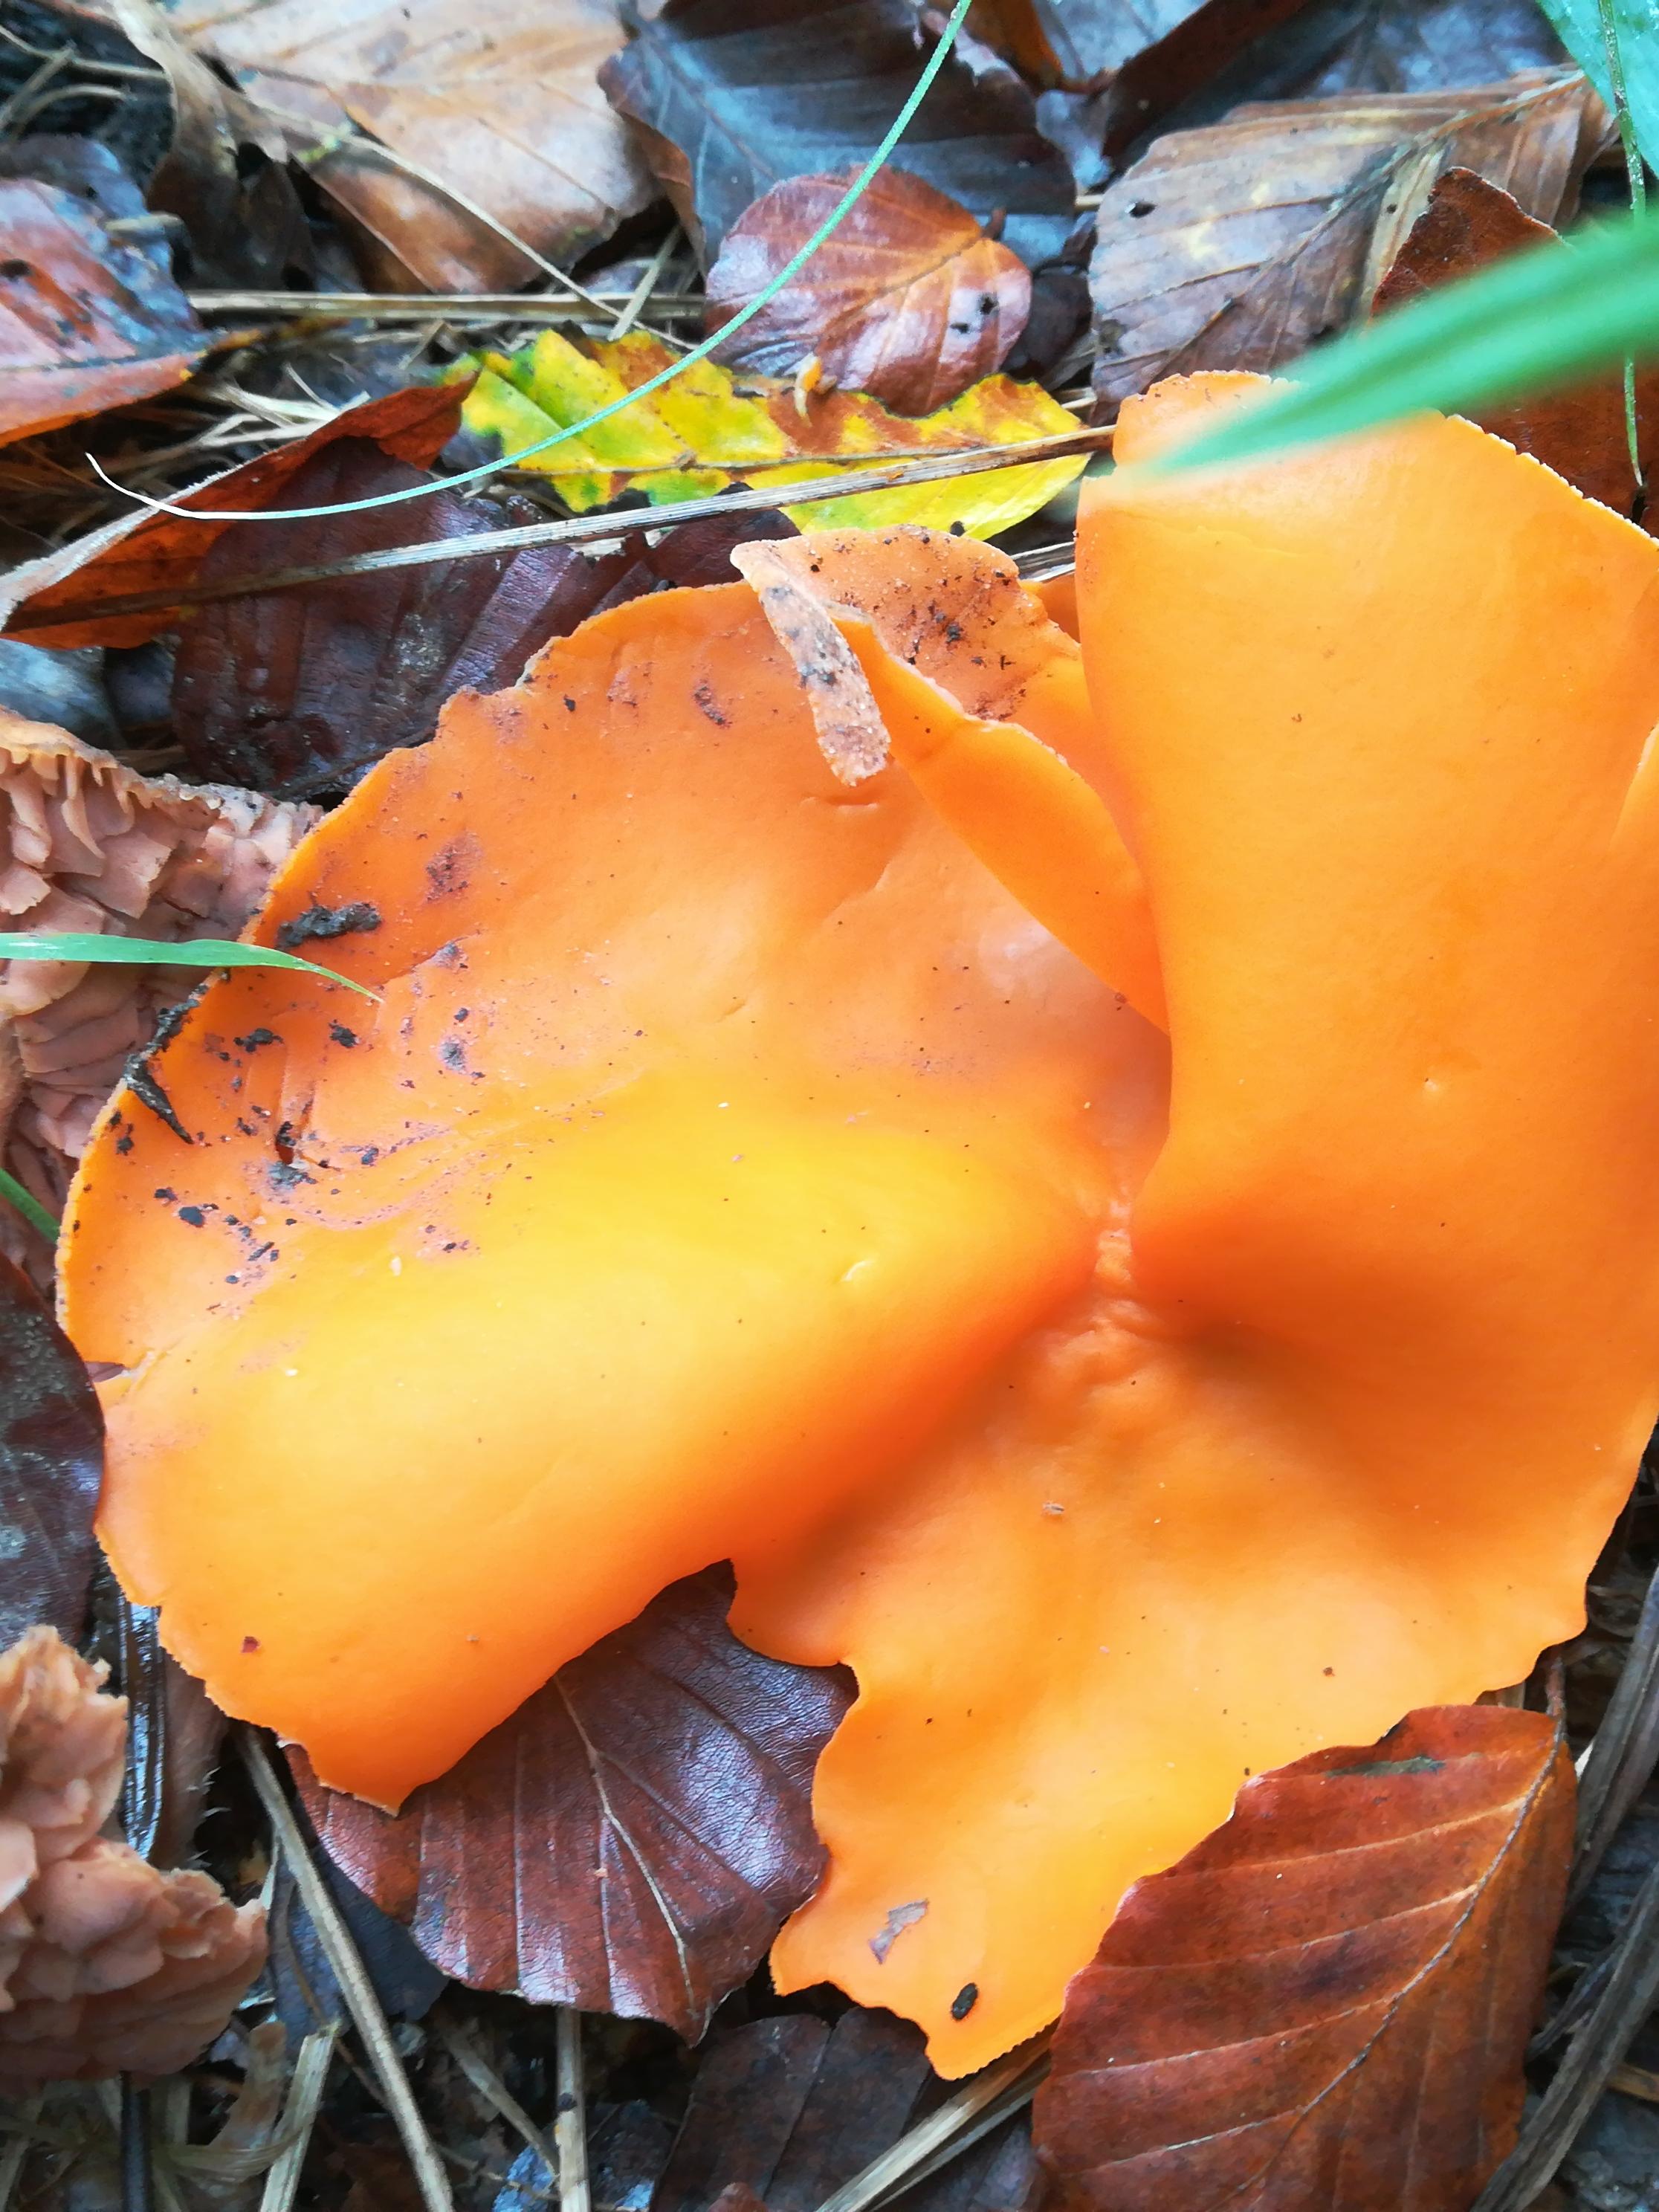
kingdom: Fungi
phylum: Ascomycota
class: Pezizomycetes
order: Pezizales
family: Pyronemataceae
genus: Aleuria
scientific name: Aleuria aurantia
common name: almindelig orangebæger
